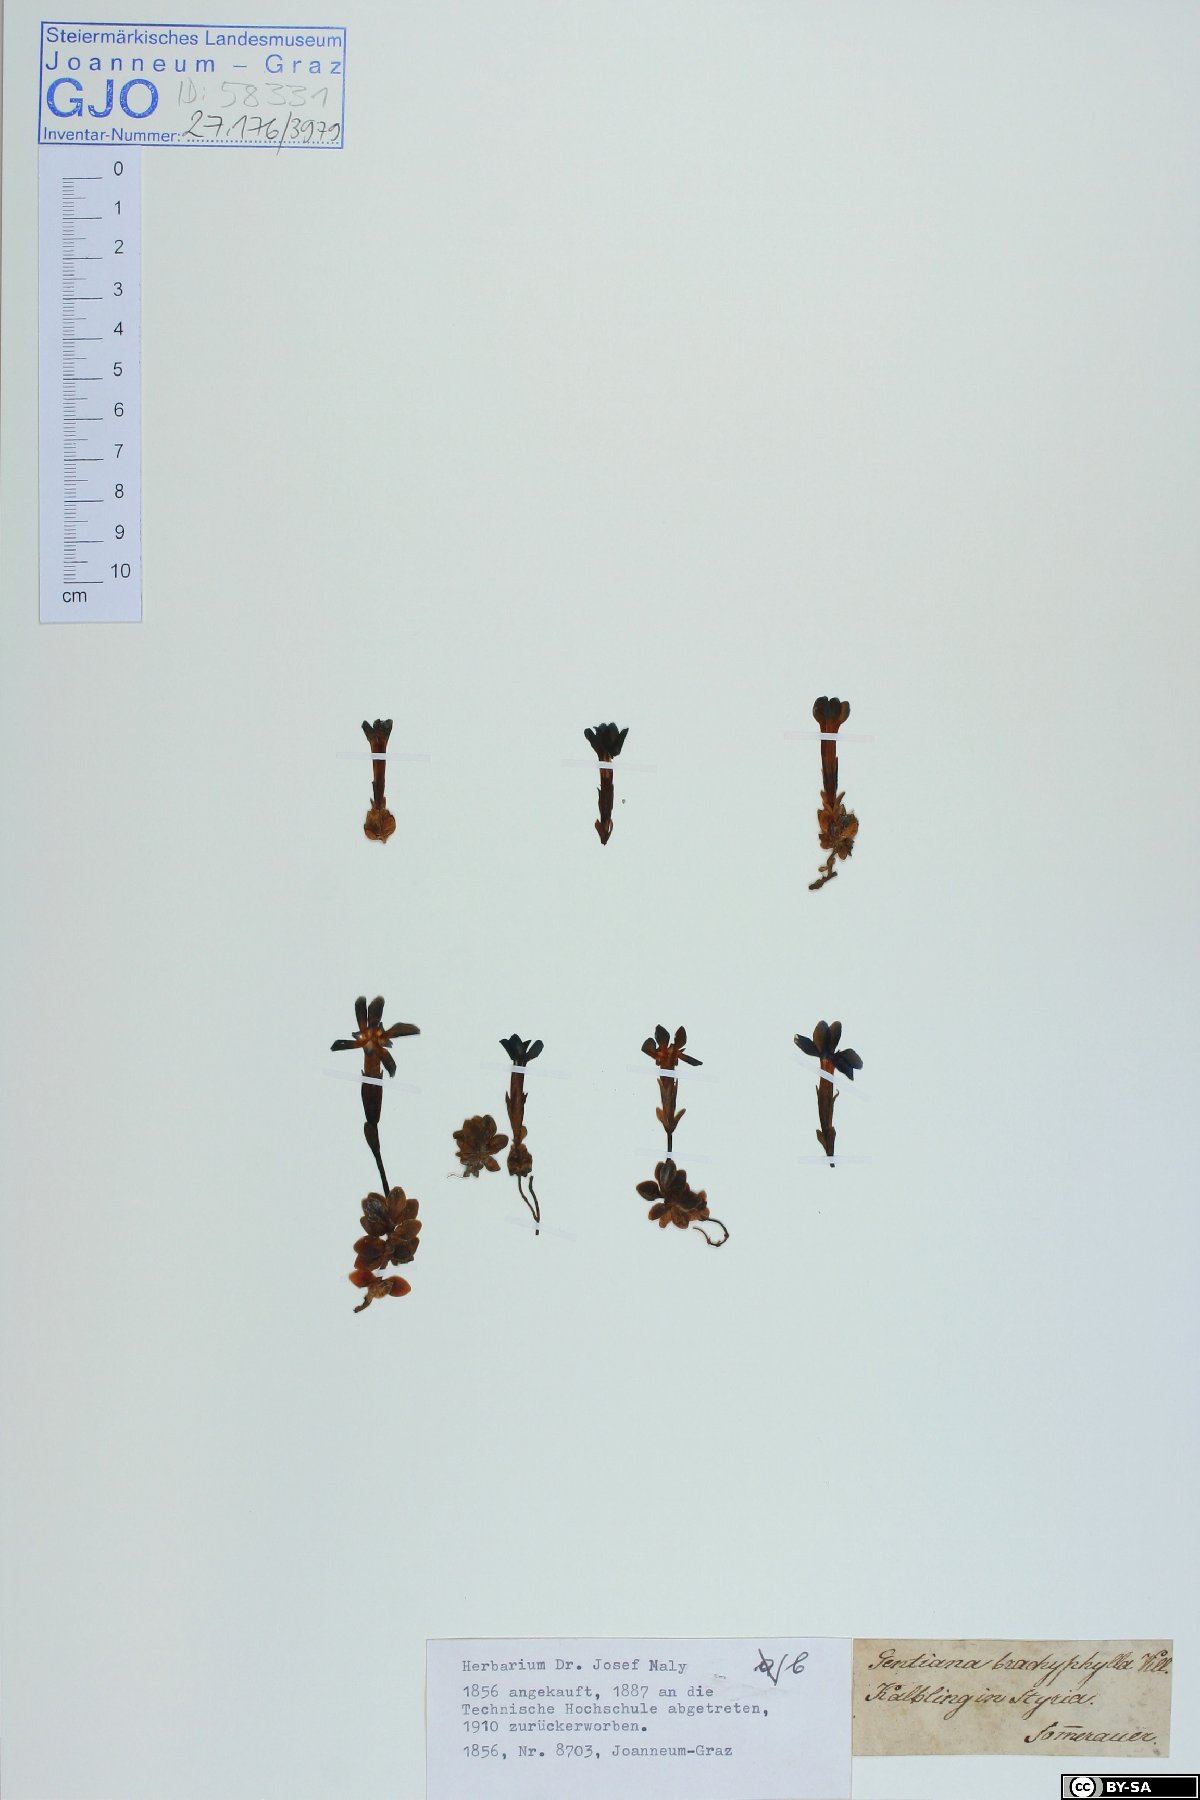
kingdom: Plantae
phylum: Tracheophyta
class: Magnoliopsida
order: Gentianales
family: Gentianaceae
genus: Gentiana
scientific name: Gentiana brachyphylla
